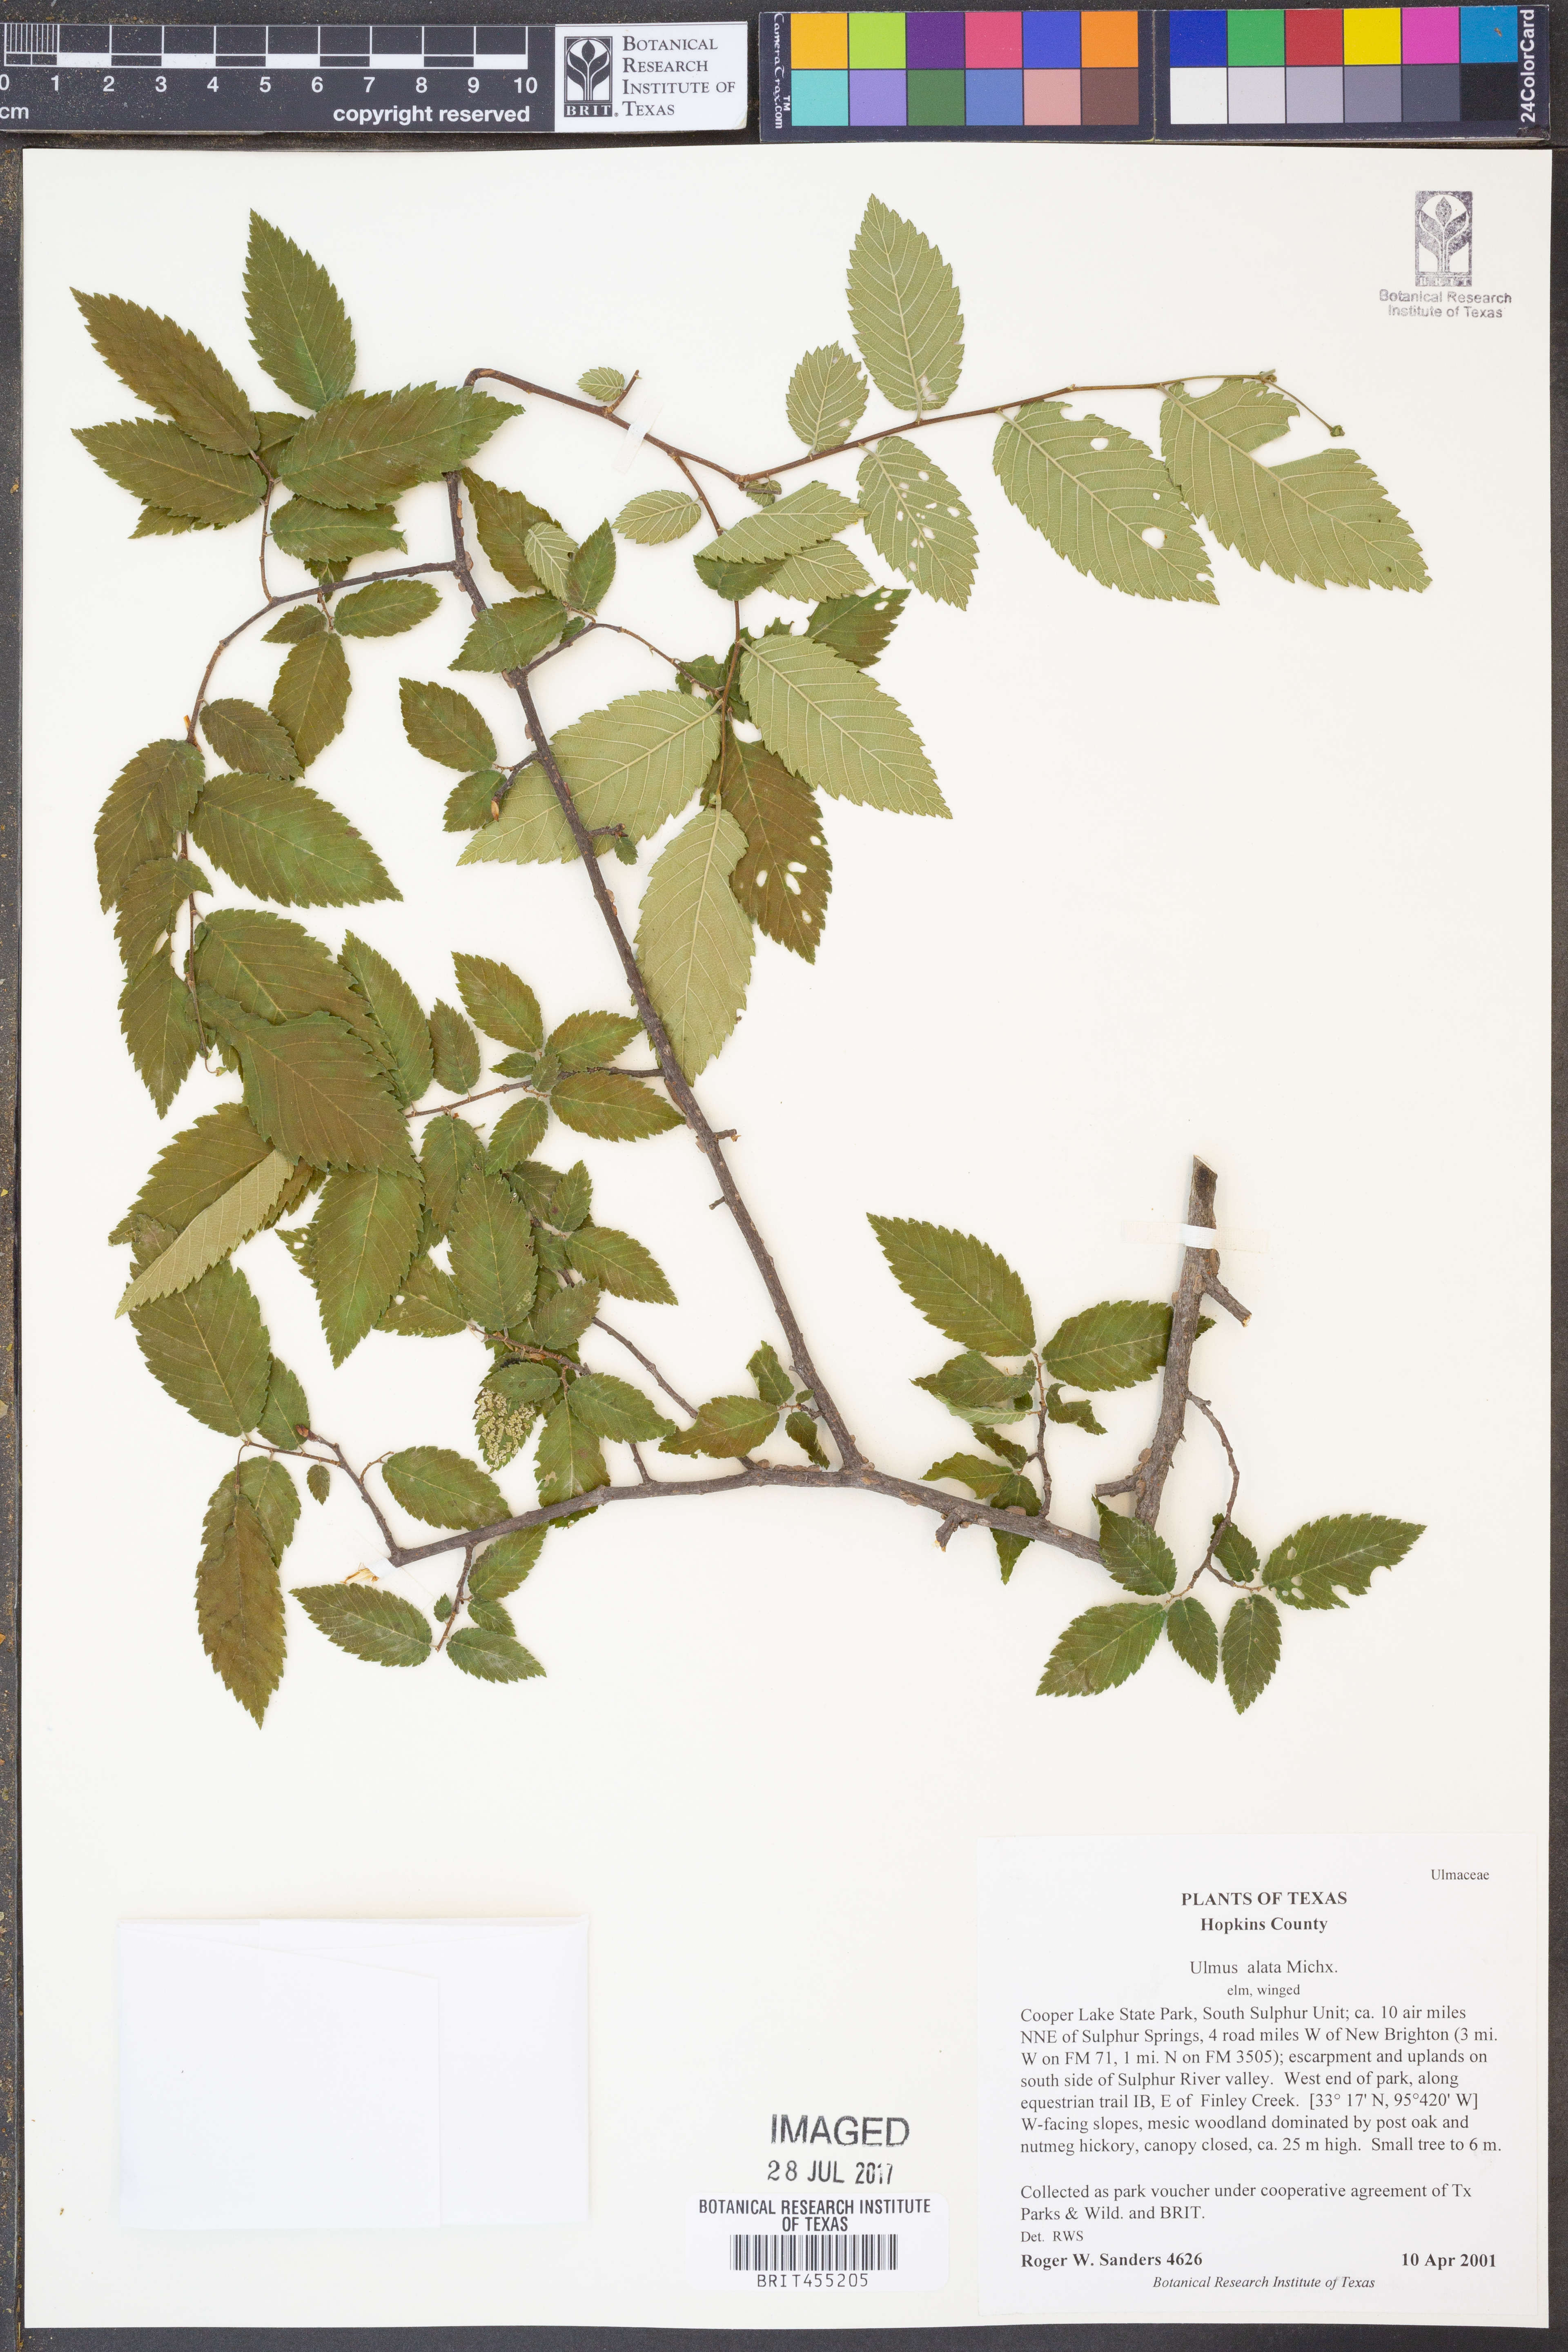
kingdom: Plantae
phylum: Tracheophyta
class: Magnoliopsida
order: Rosales
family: Ulmaceae
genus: Ulmus
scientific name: Ulmus alata
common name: Winged elm
